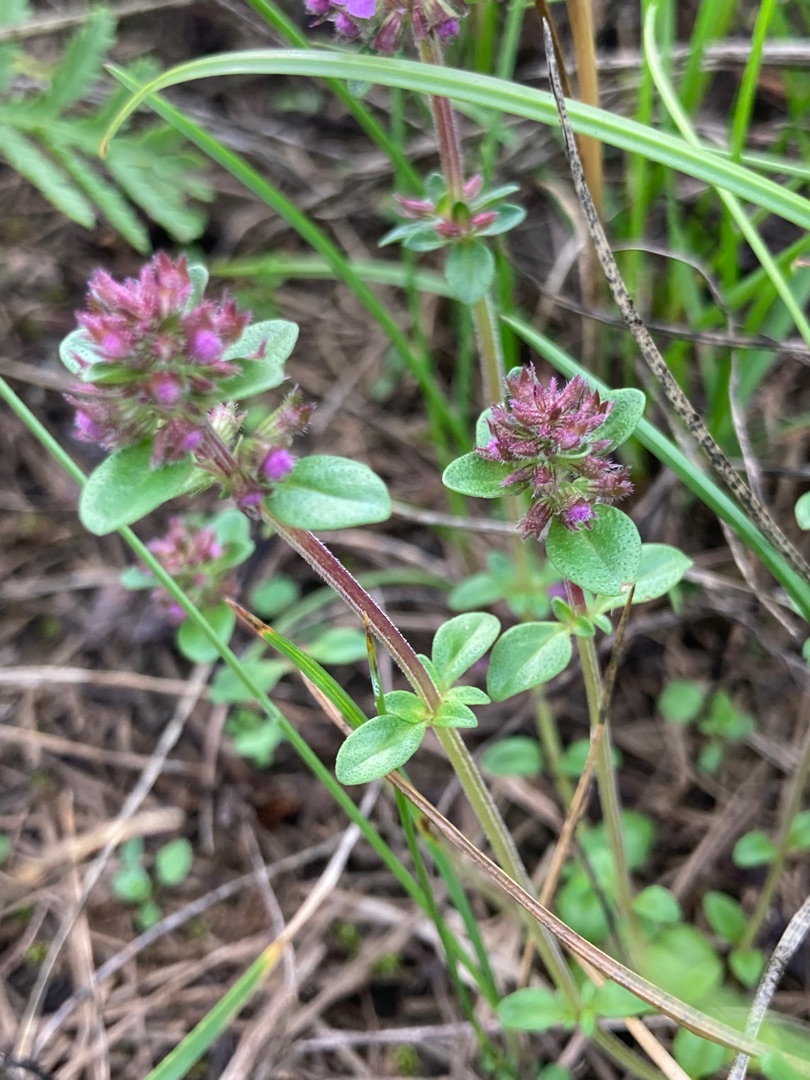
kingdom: Plantae
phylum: Tracheophyta
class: Magnoliopsida
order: Lamiales
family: Lamiaceae
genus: Thymus
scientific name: Thymus pulegioides
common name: Bredbladet timian
